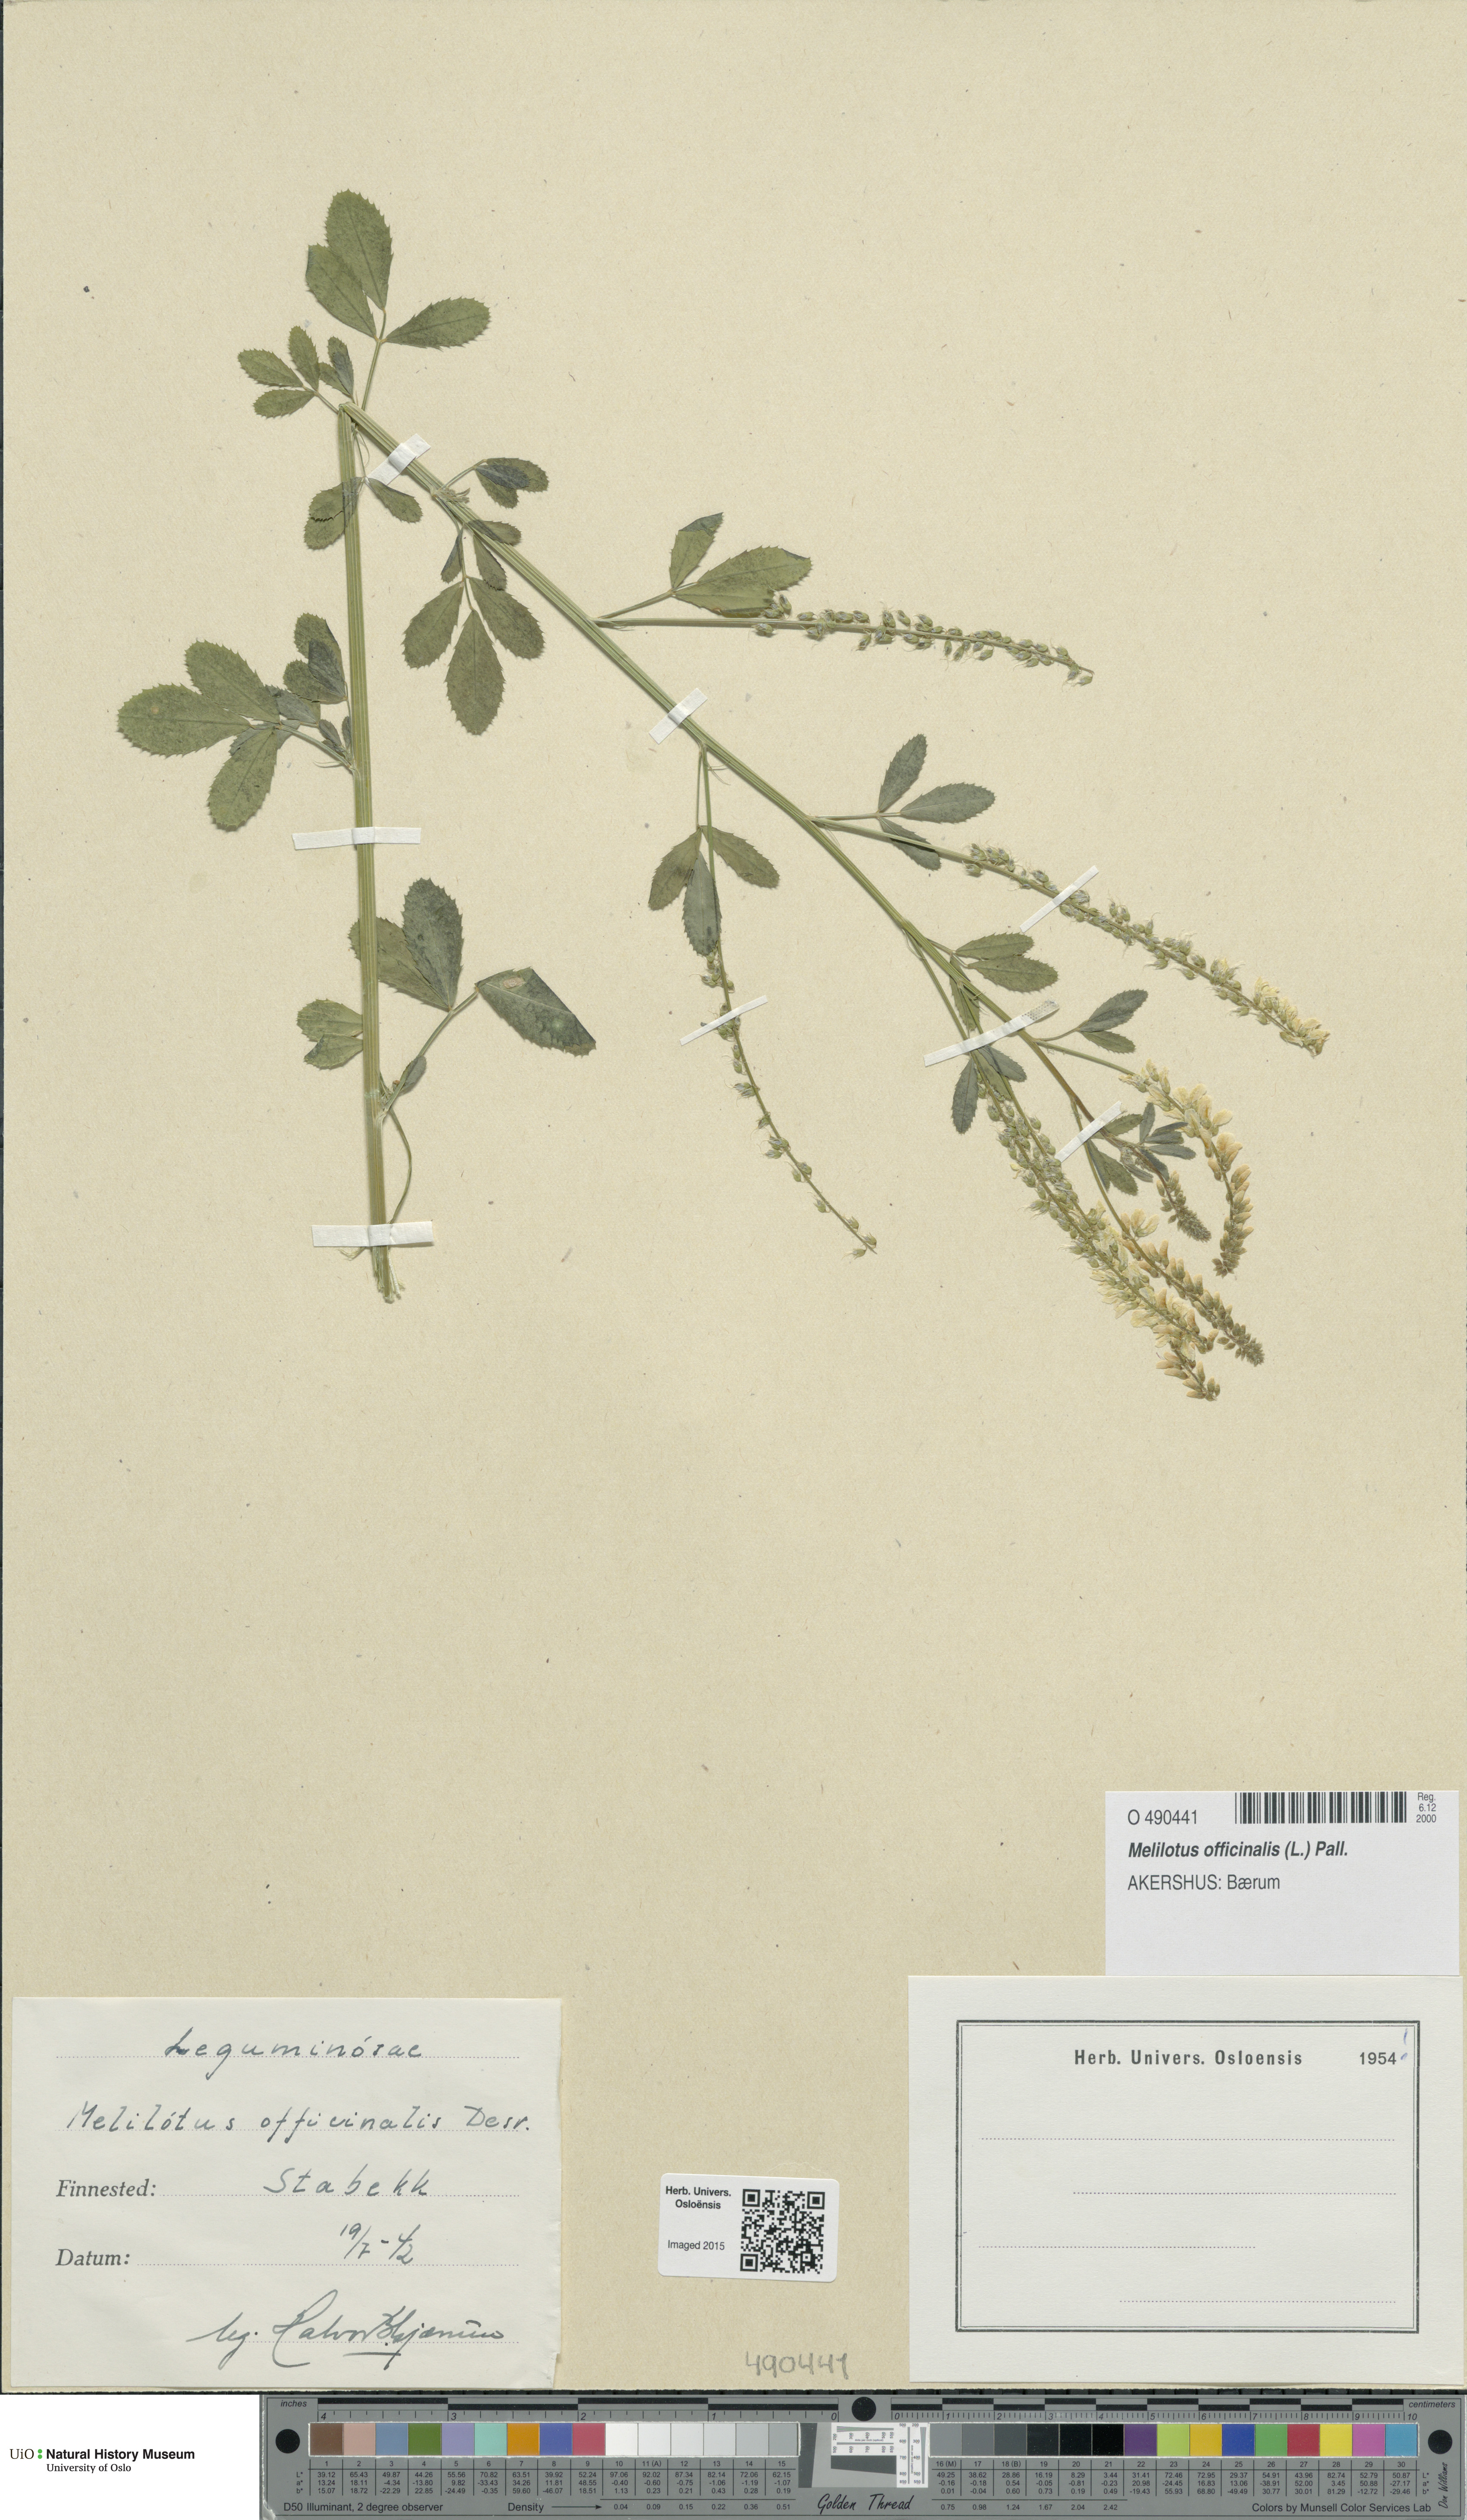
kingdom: Plantae
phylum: Tracheophyta
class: Magnoliopsida
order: Fabales
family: Fabaceae
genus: Melilotus
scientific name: Melilotus officinalis
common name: Sweetclover
